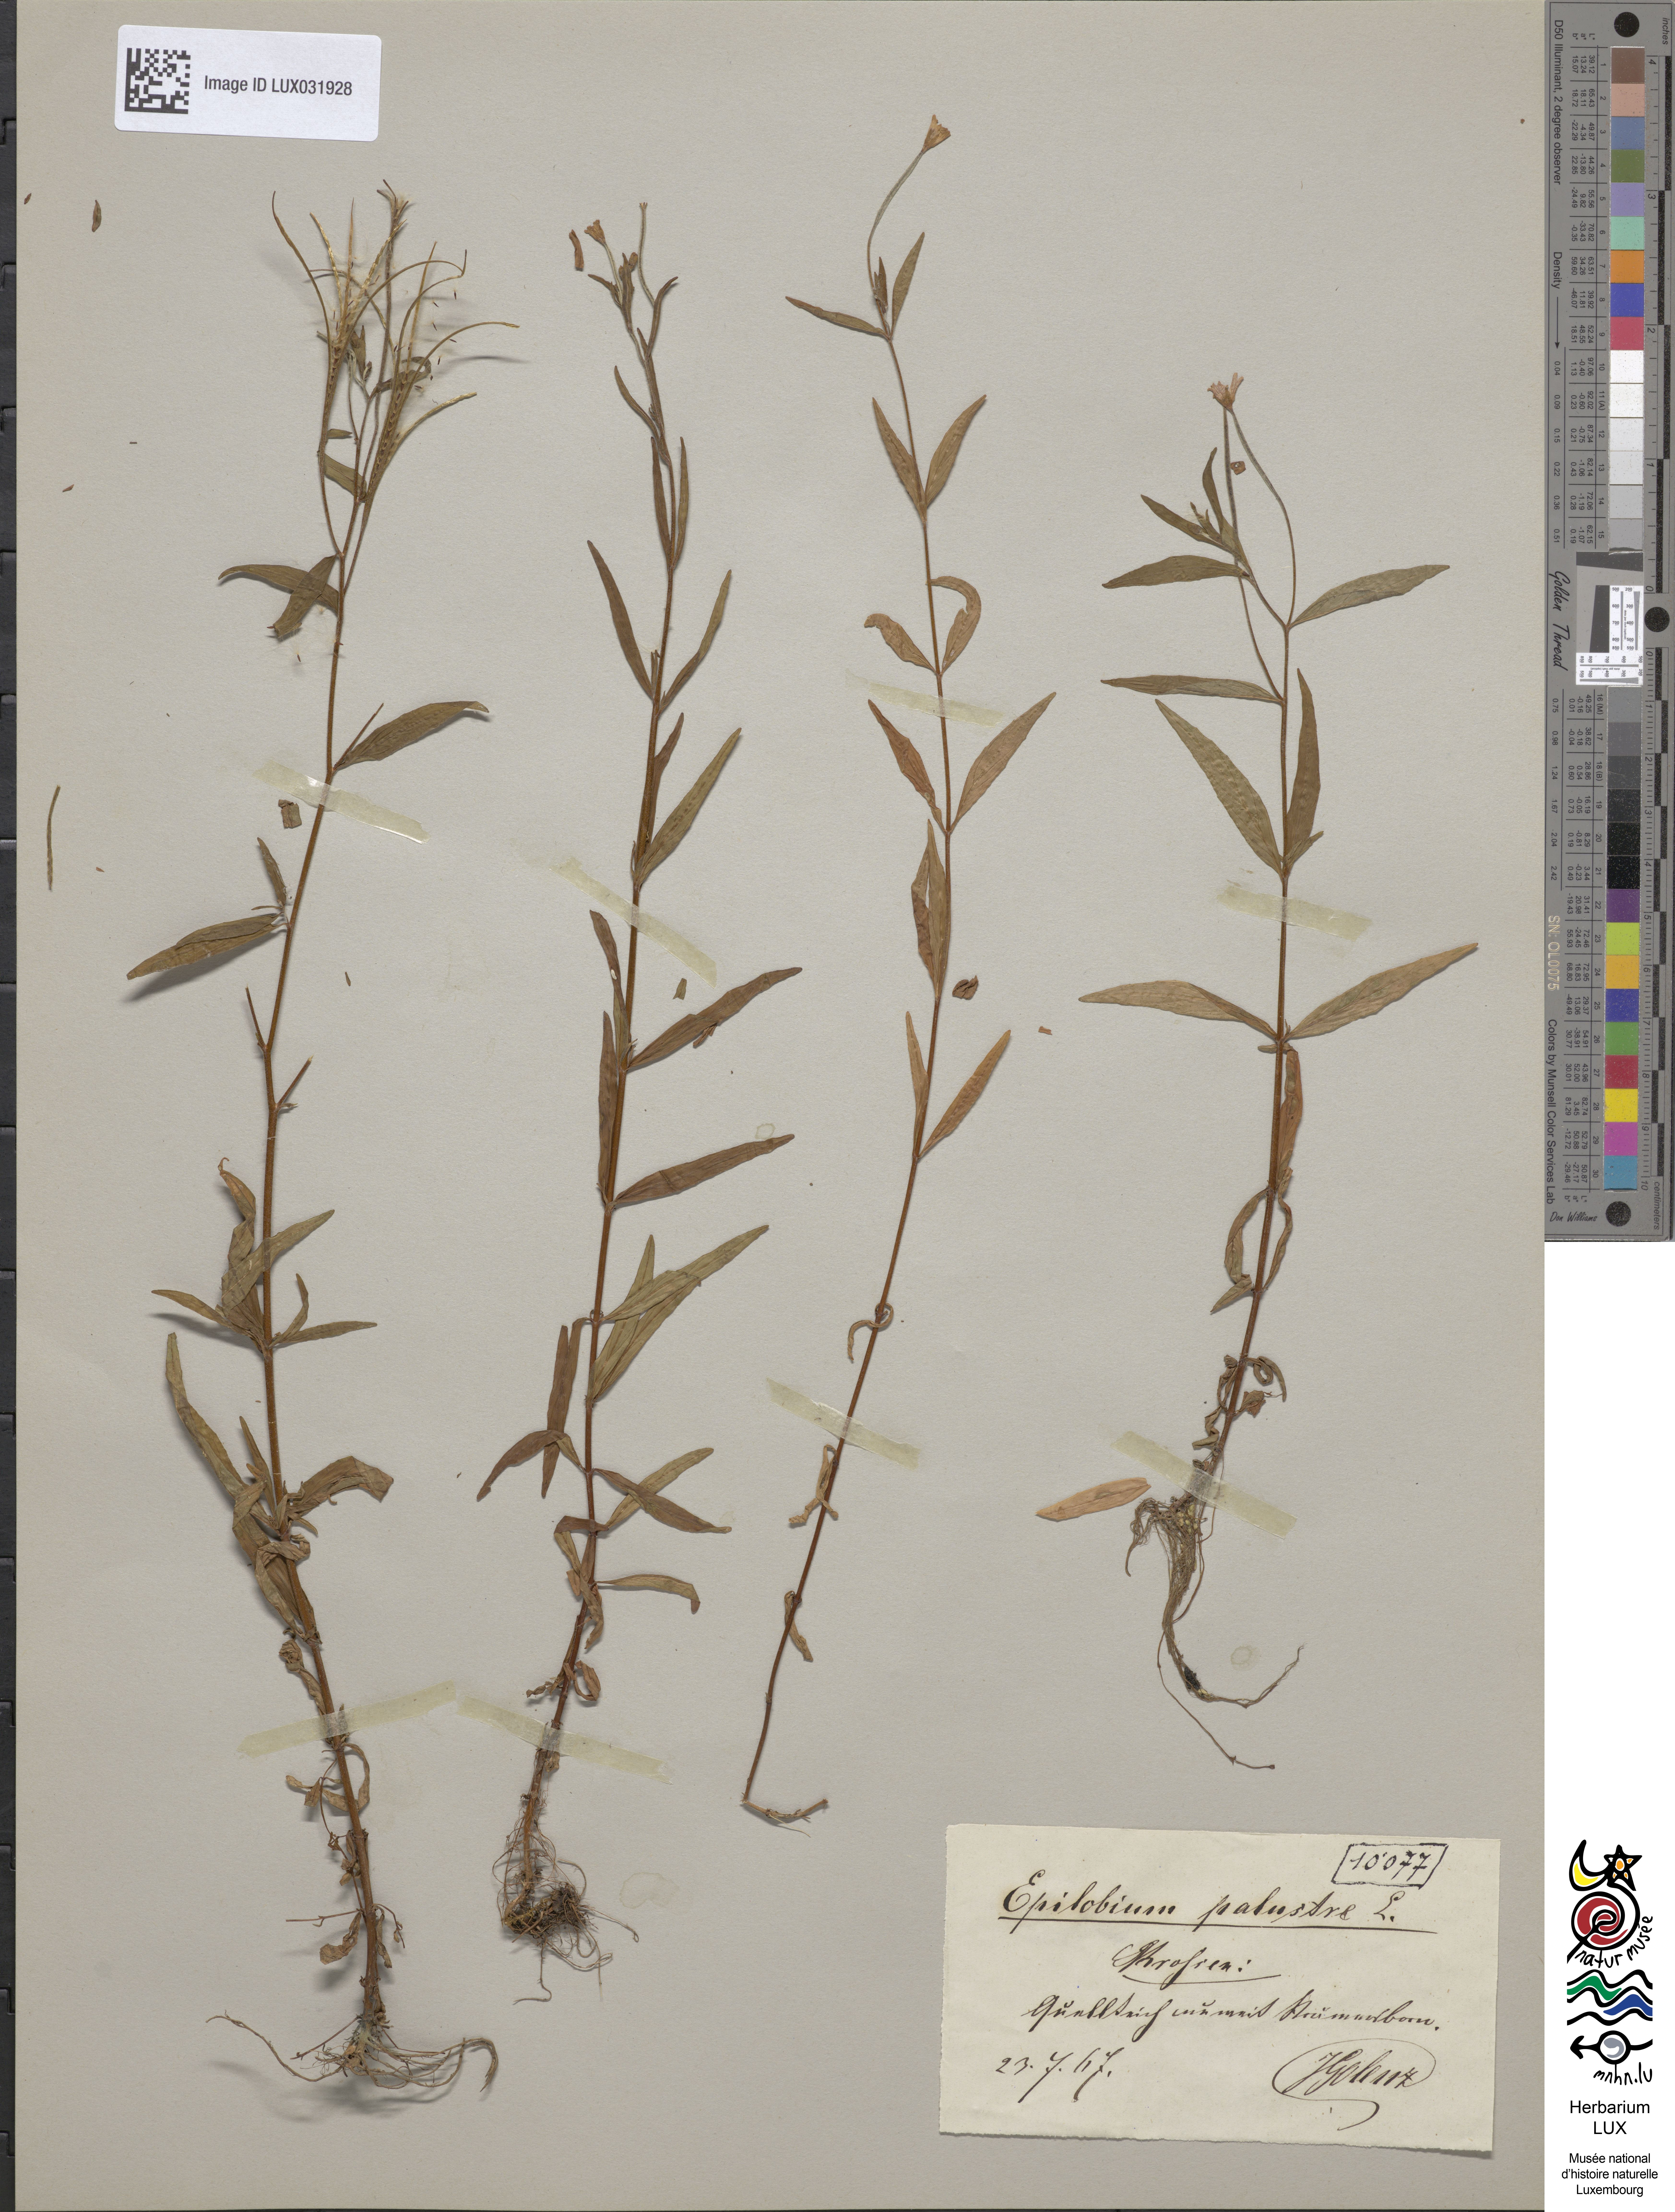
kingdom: Plantae
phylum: Tracheophyta
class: Magnoliopsida
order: Myrtales
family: Onagraceae
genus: Epilobium
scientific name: Epilobium palustre
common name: Marsh willowherb
